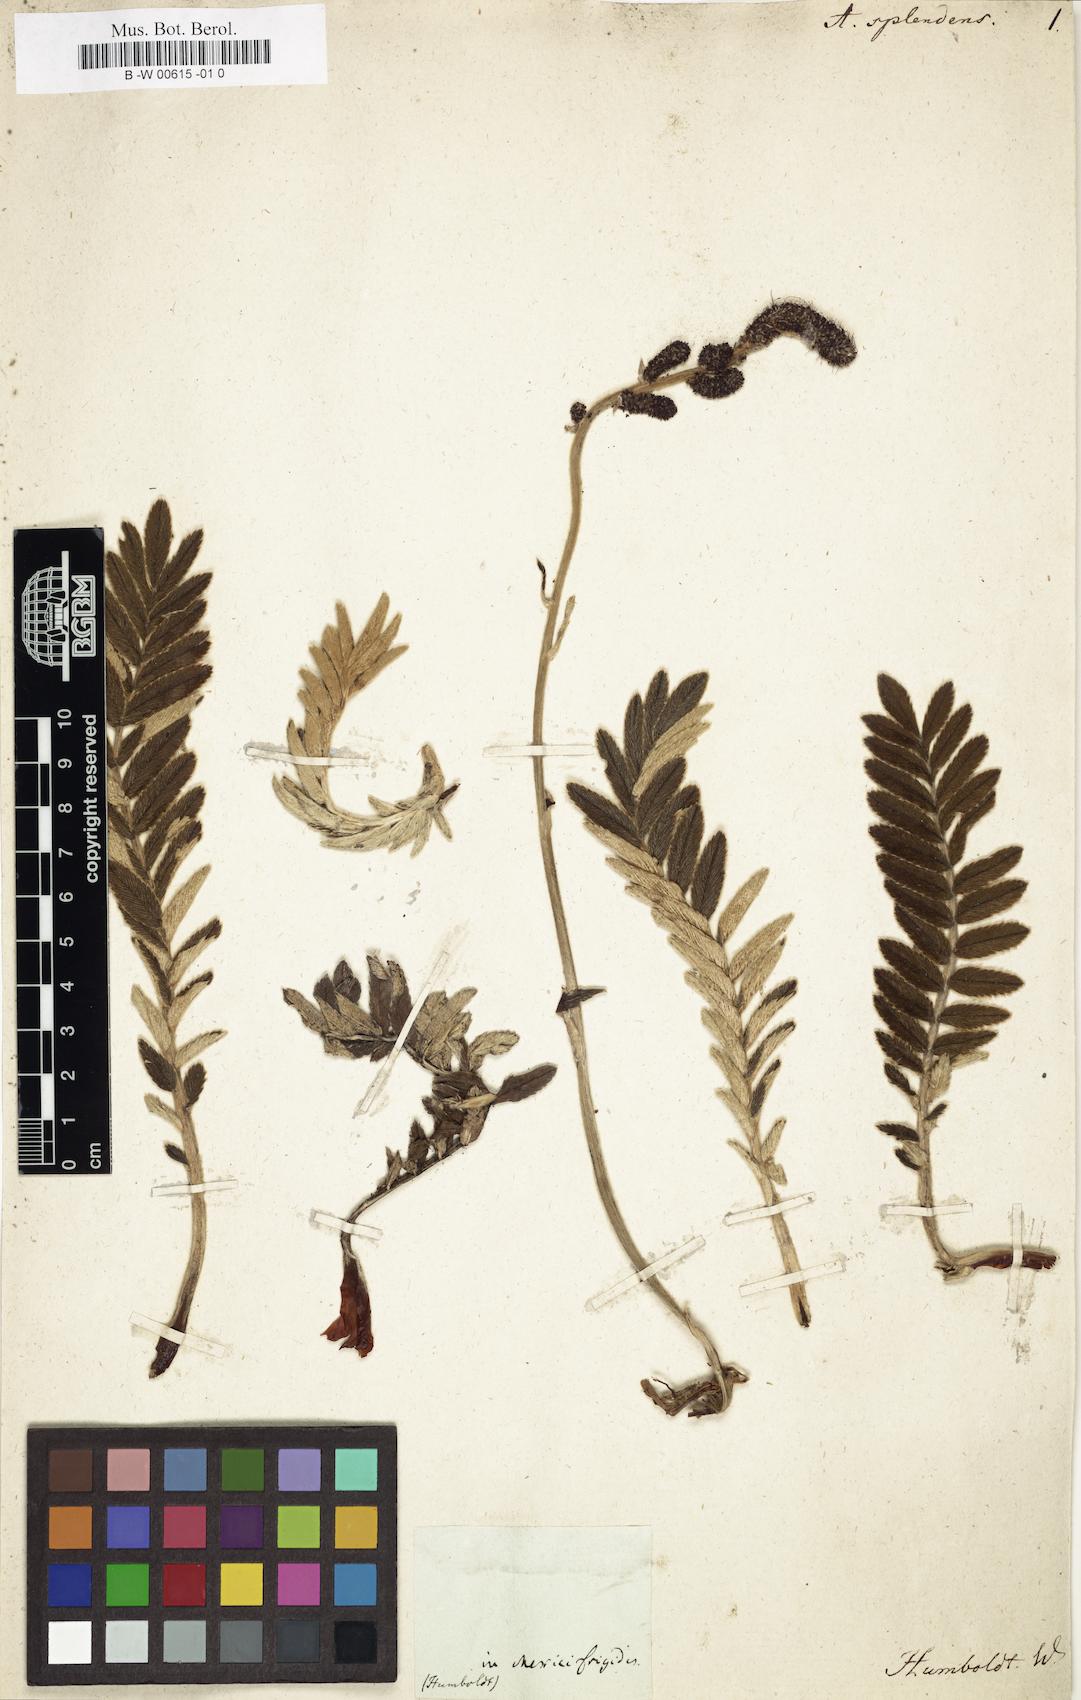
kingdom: Plantae
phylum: Tracheophyta
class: Magnoliopsida
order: Rosales
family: Rosaceae
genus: Acaena
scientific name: Acaena splendens
